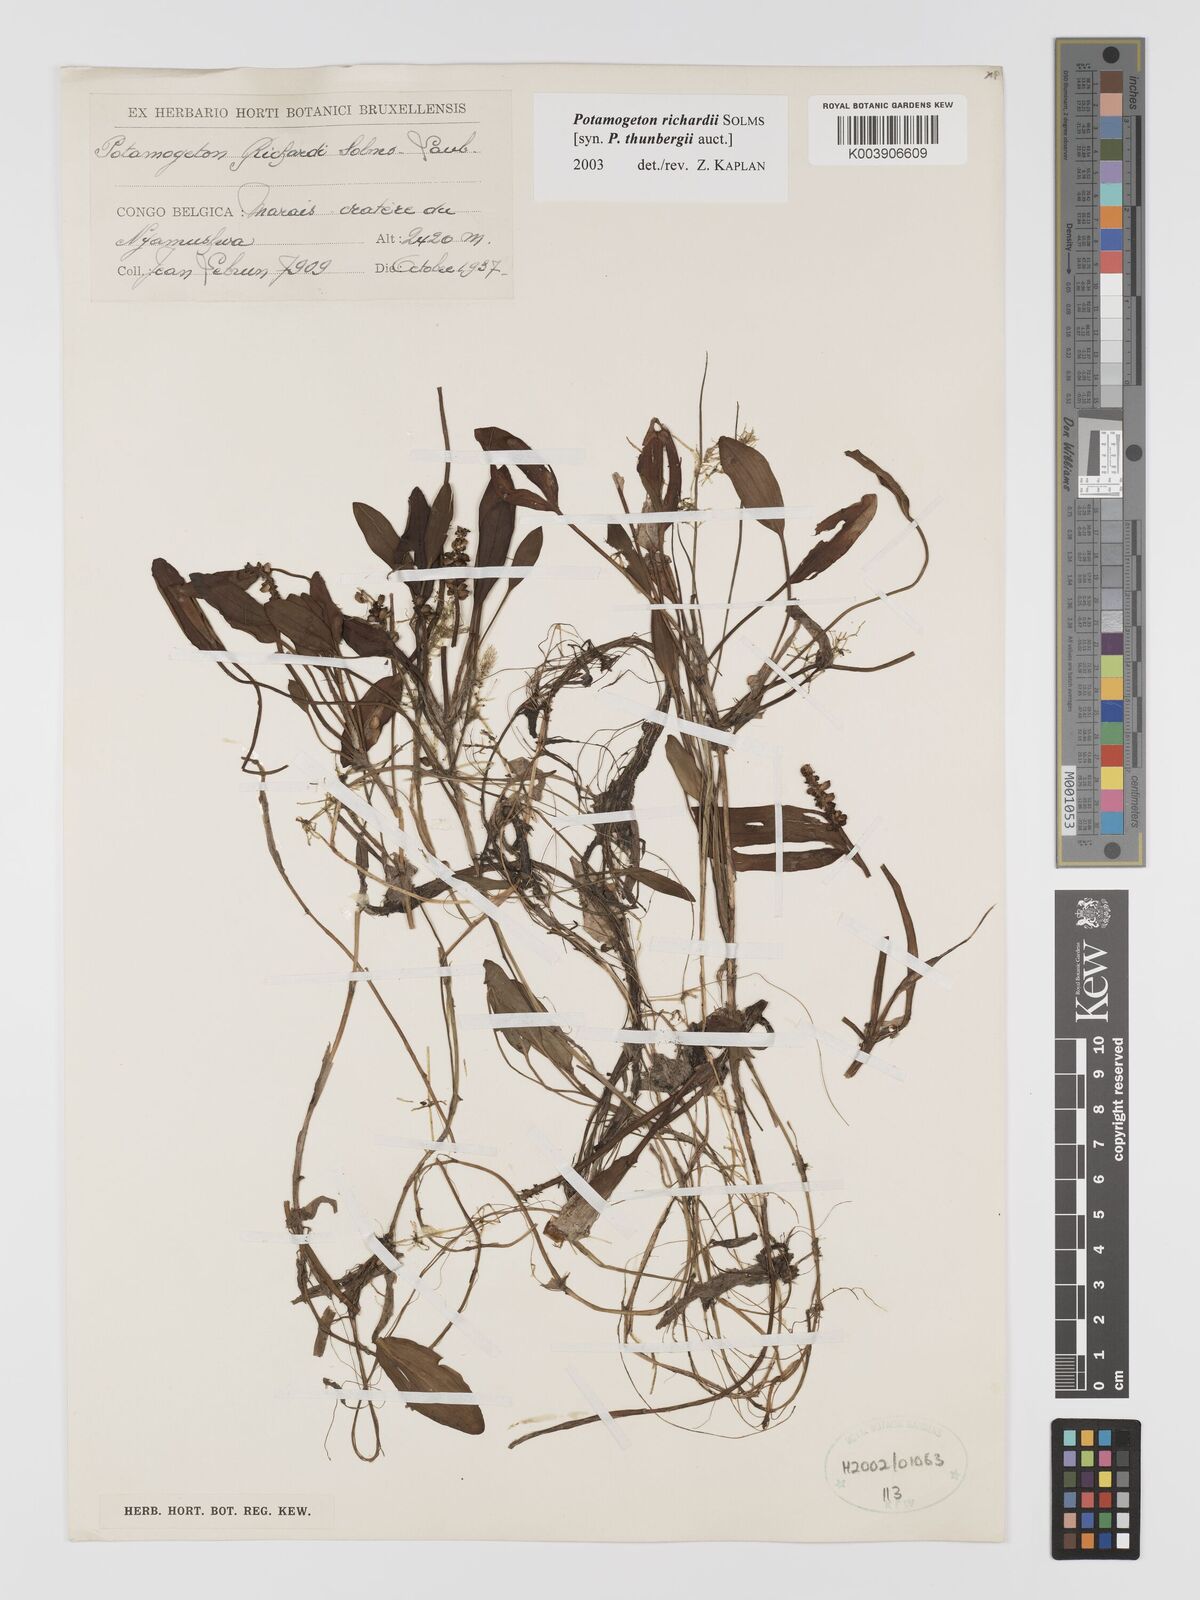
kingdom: Plantae
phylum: Tracheophyta
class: Liliopsida
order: Alismatales
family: Potamogetonaceae
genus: Potamogeton
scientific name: Potamogeton nodosus
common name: Loddon pondweed
